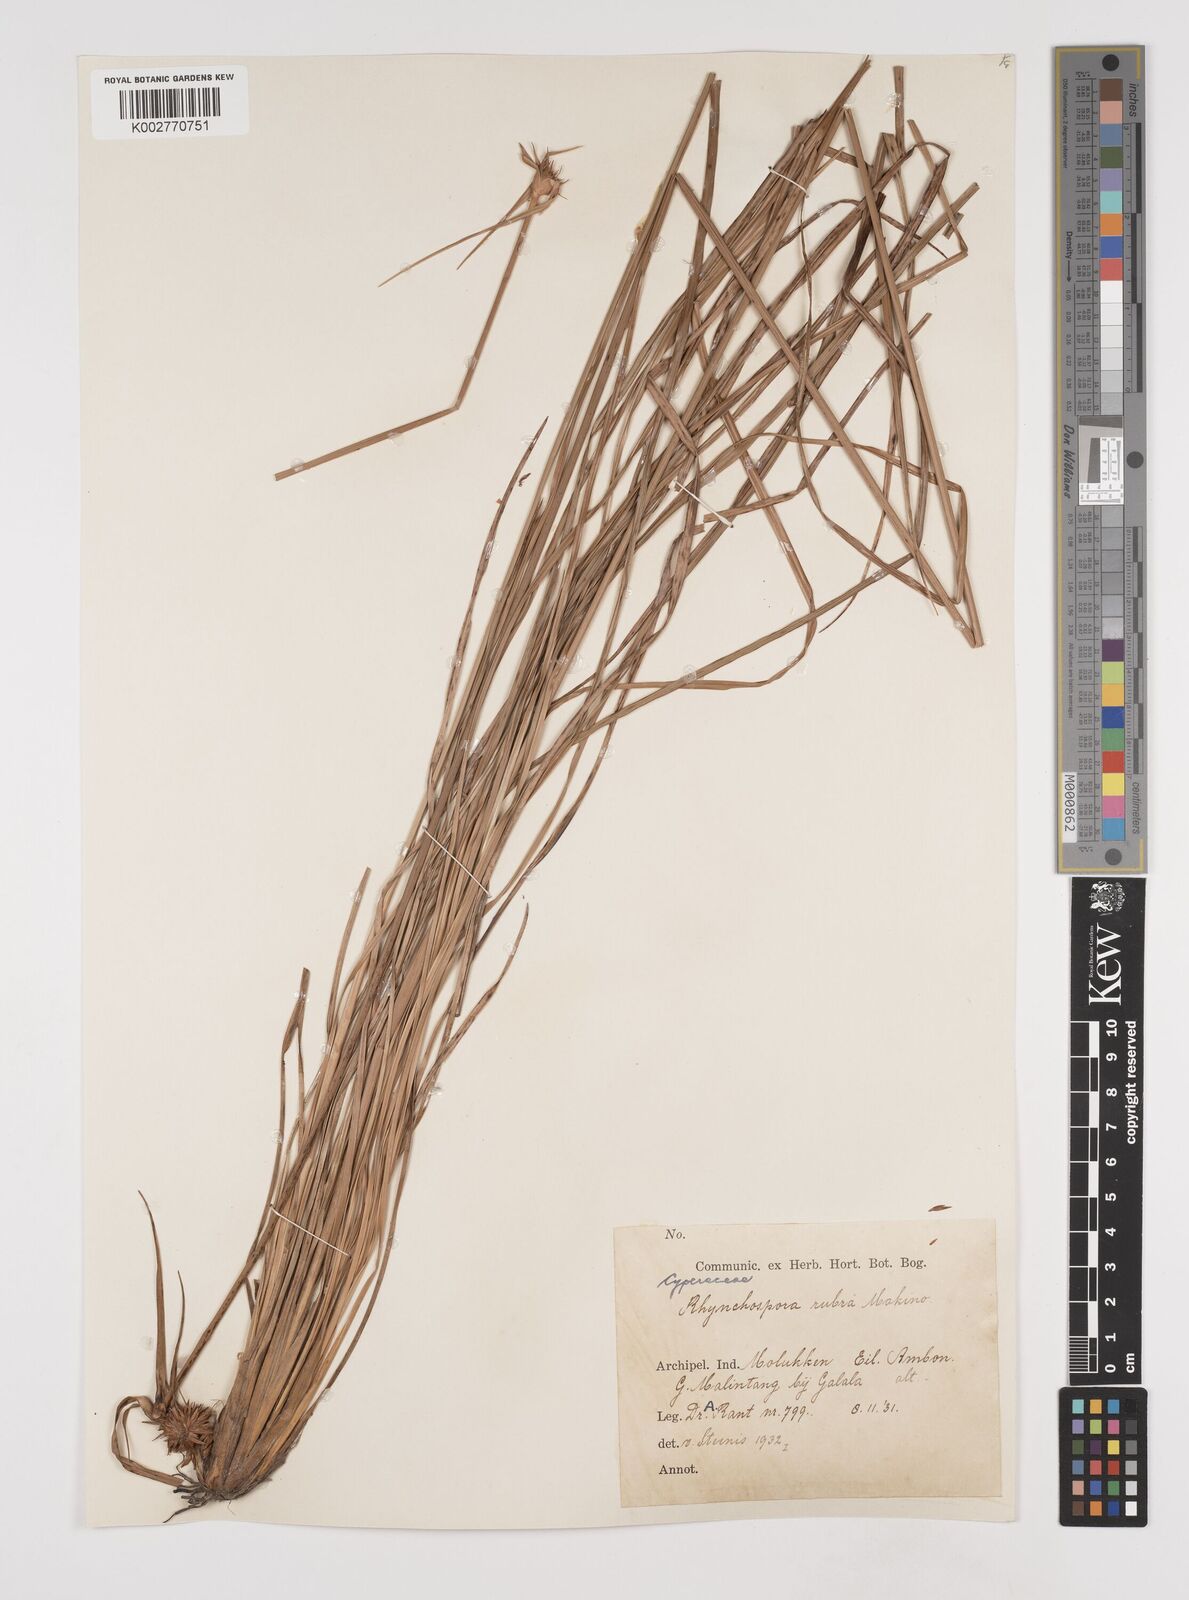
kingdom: Plantae
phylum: Tracheophyta
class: Liliopsida
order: Poales
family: Cyperaceae
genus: Rhynchospora
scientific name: Rhynchospora rubra
